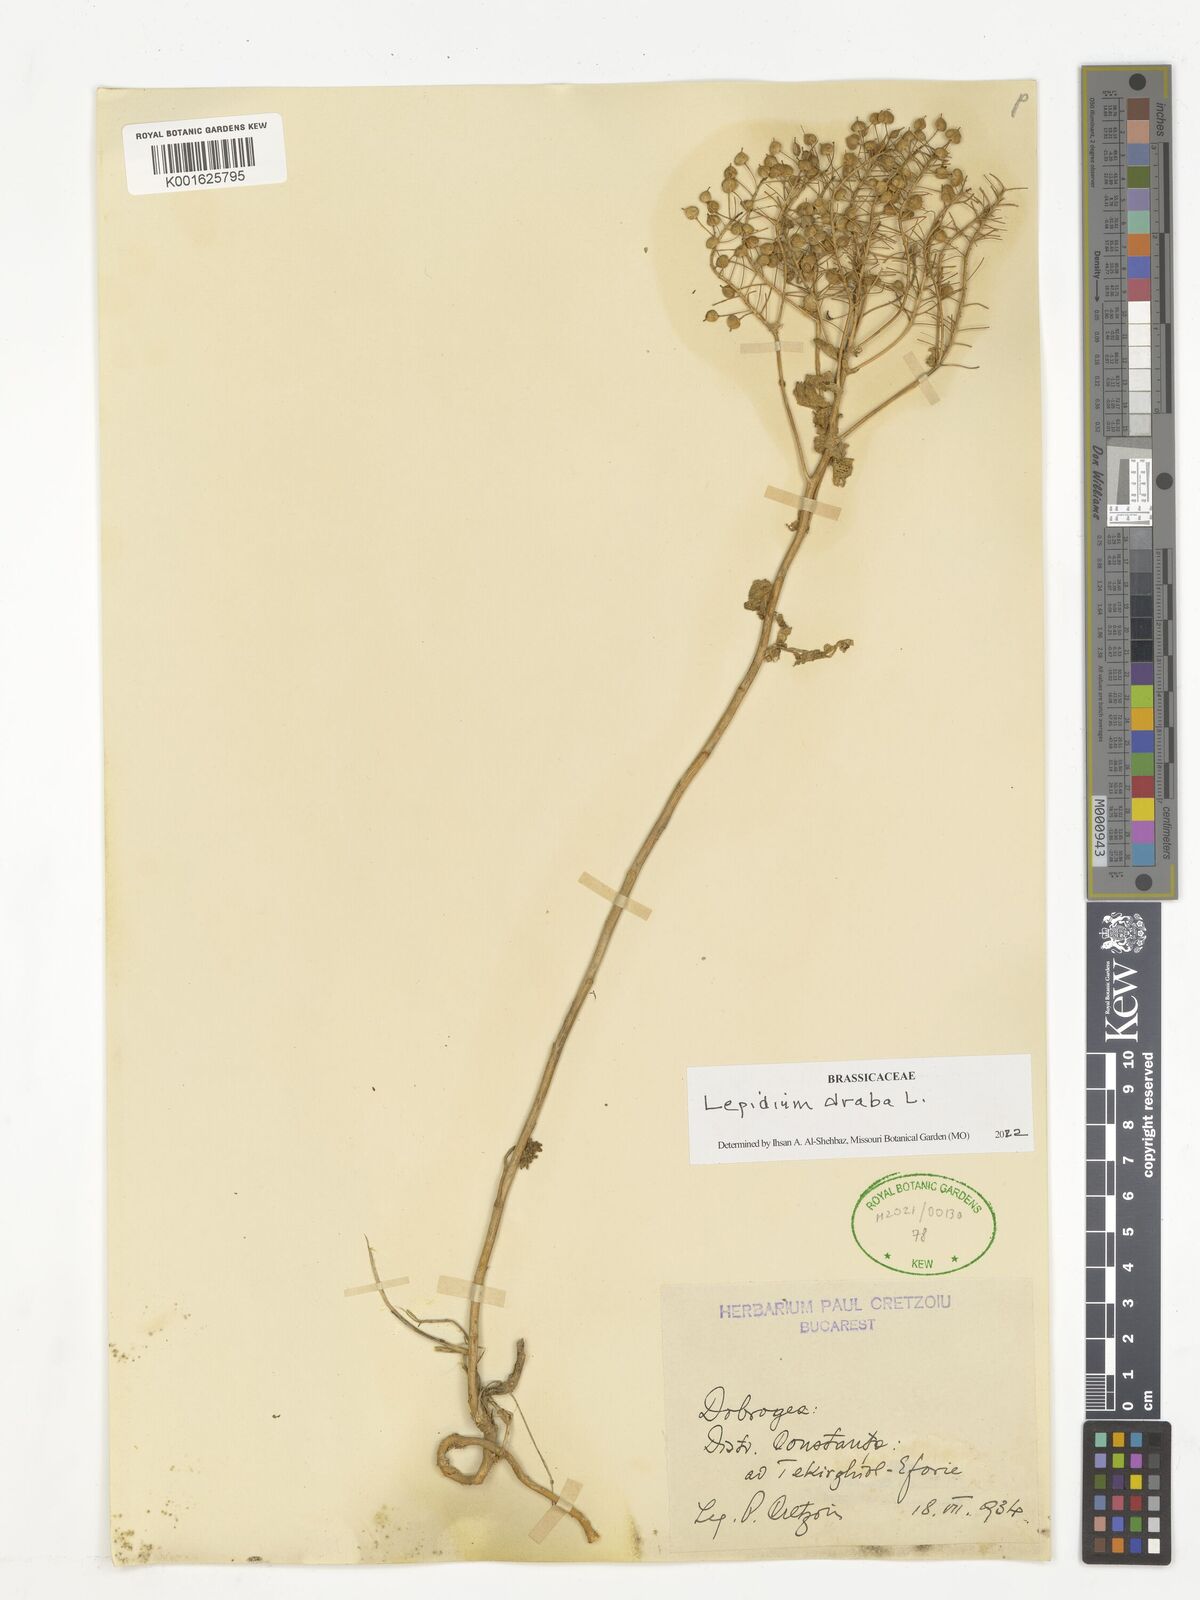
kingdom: Plantae
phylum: Tracheophyta
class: Magnoliopsida
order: Brassicales
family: Brassicaceae
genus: Lepidium
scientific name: Lepidium draba
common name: Hoary cress
